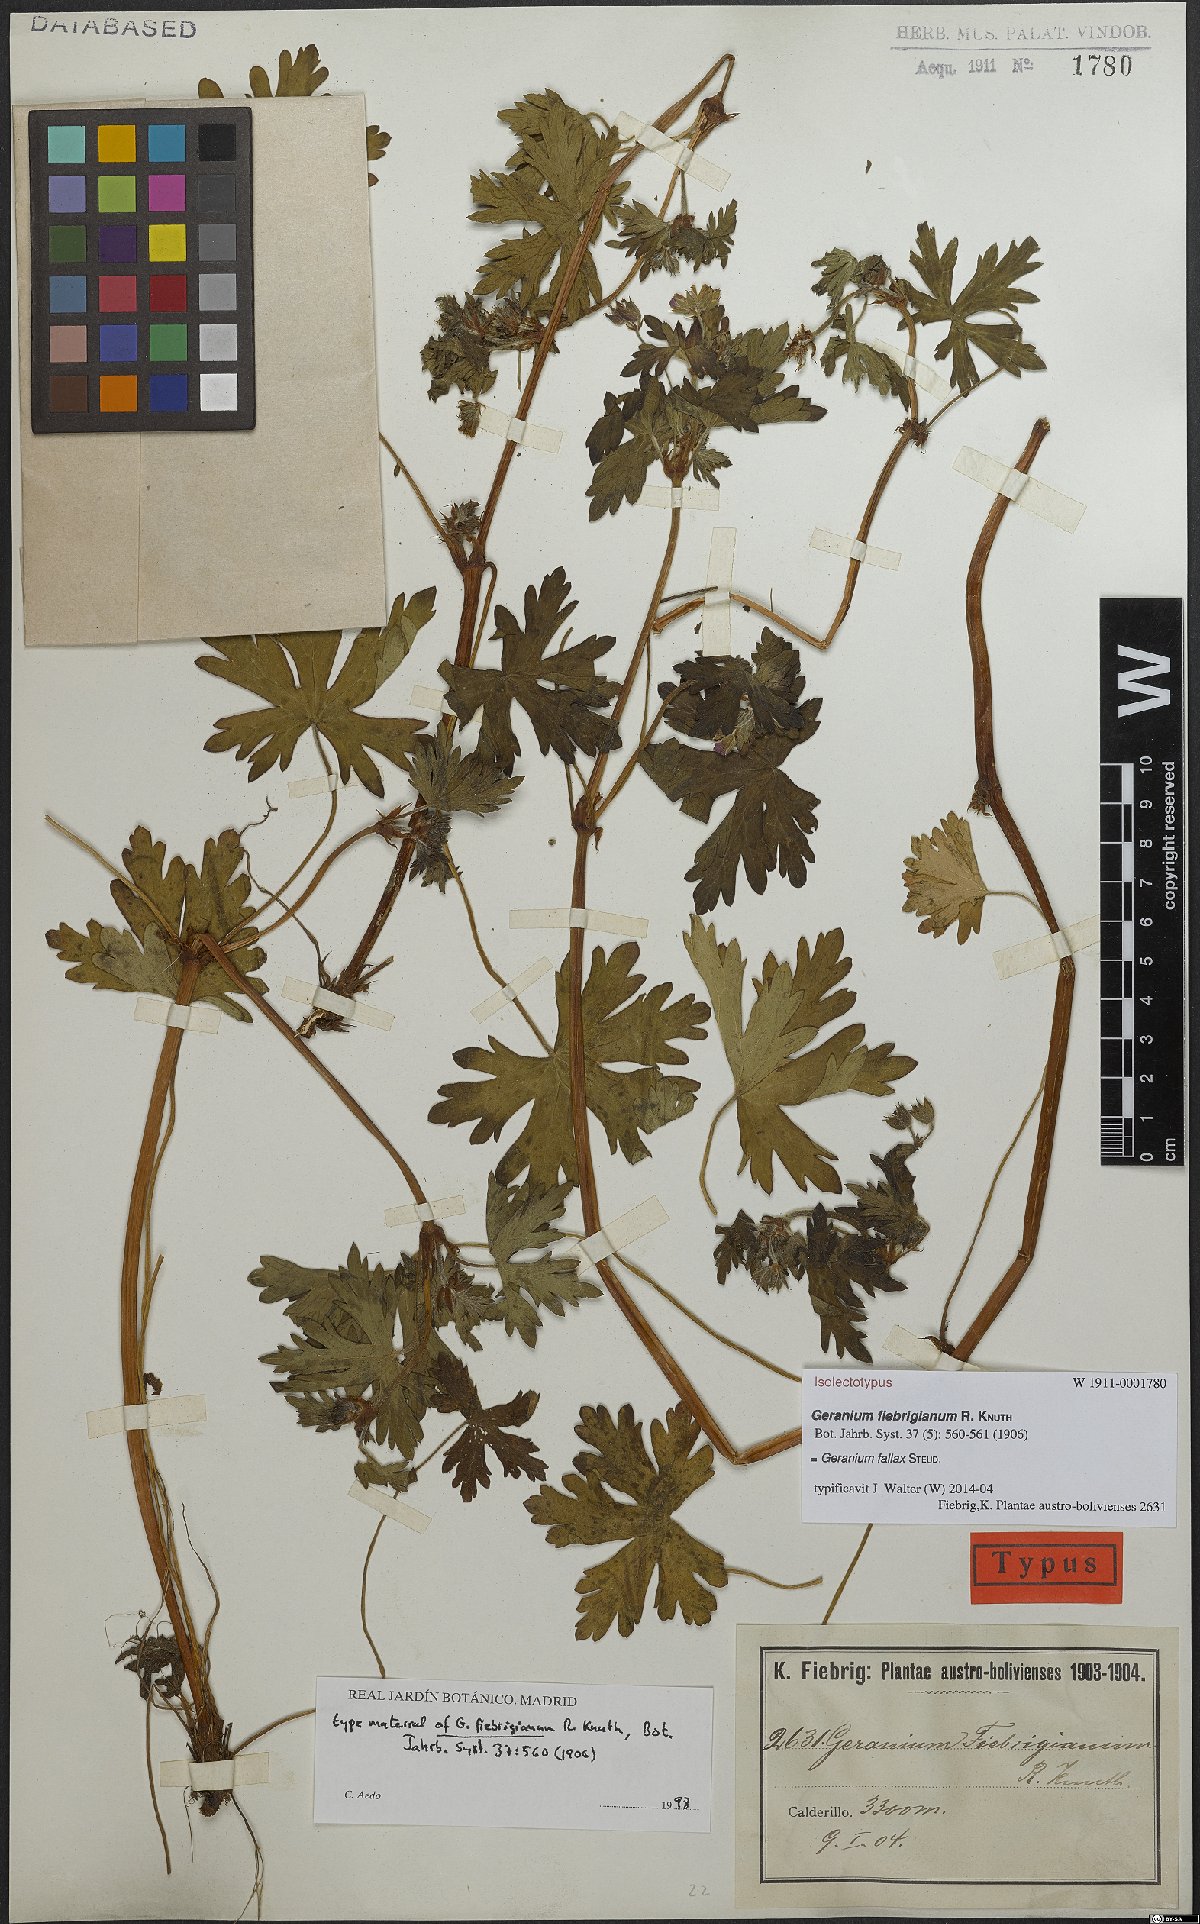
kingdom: Plantae
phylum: Tracheophyta
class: Magnoliopsida
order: Geraniales
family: Geraniaceae
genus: Geranium
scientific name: Geranium fallax
